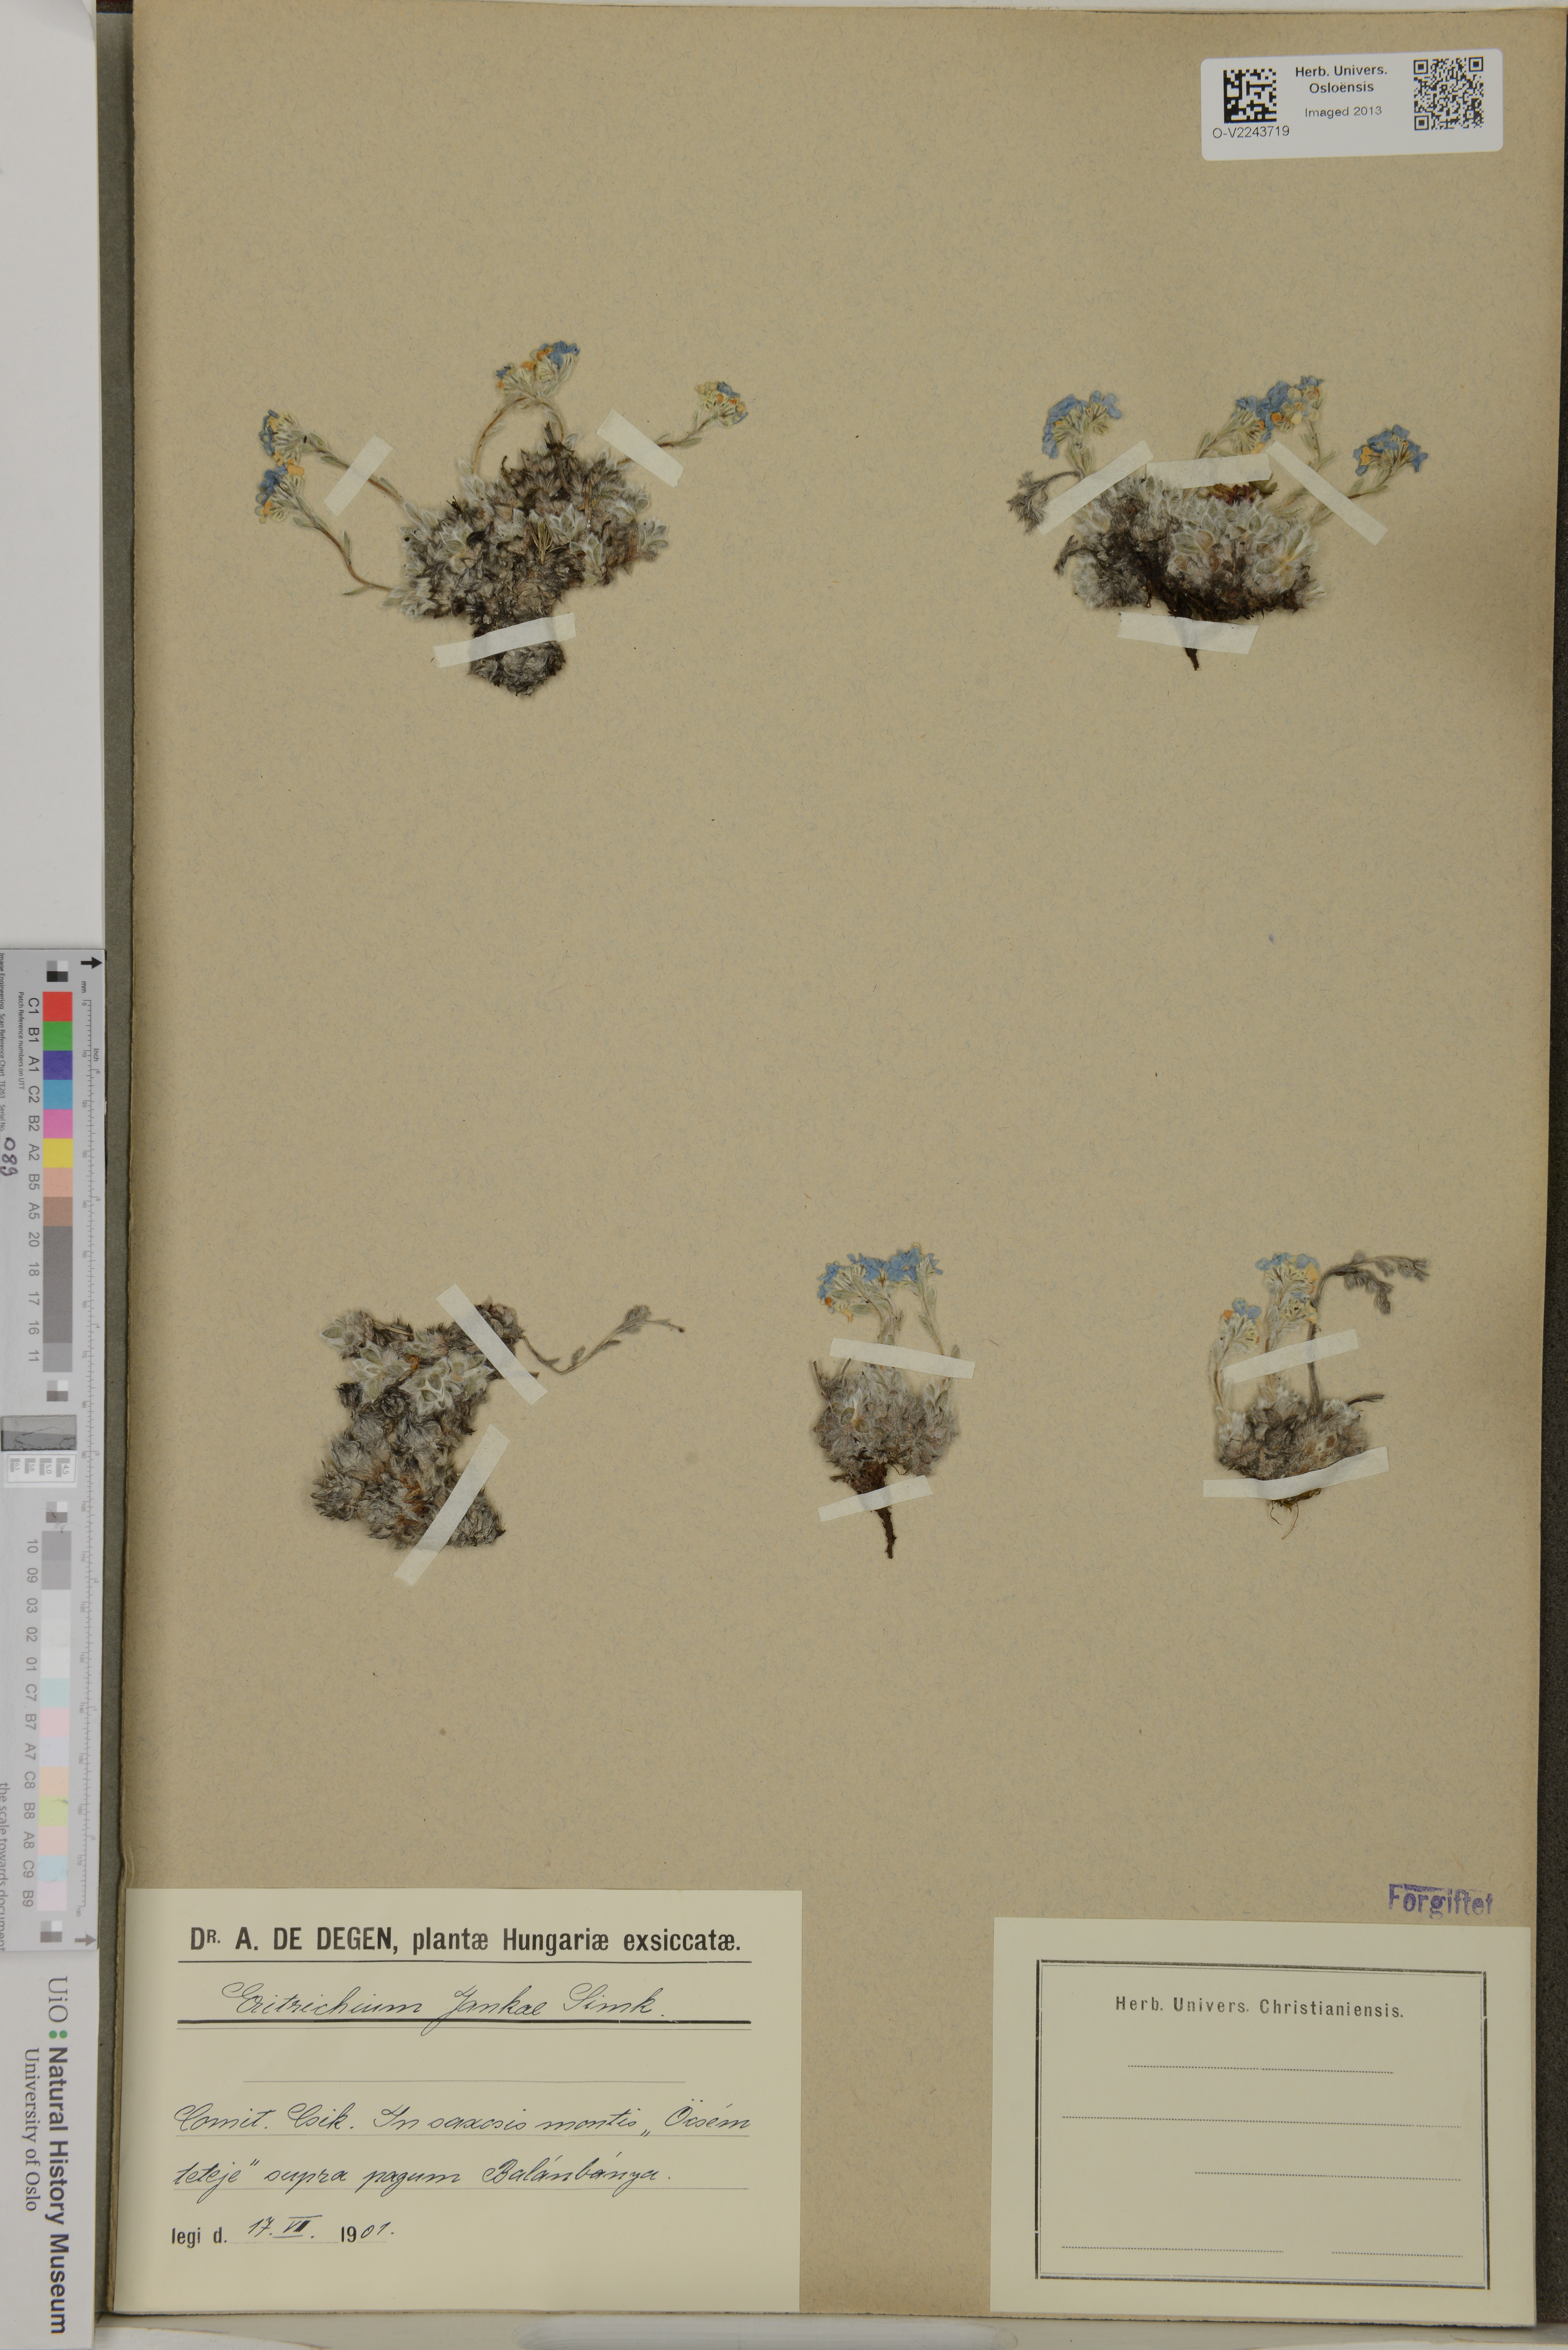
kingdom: Plantae
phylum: Tracheophyta
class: Magnoliopsida
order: Boraginales
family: Boraginaceae
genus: Eritrichium
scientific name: Eritrichium nanum
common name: King-of-the-alps
